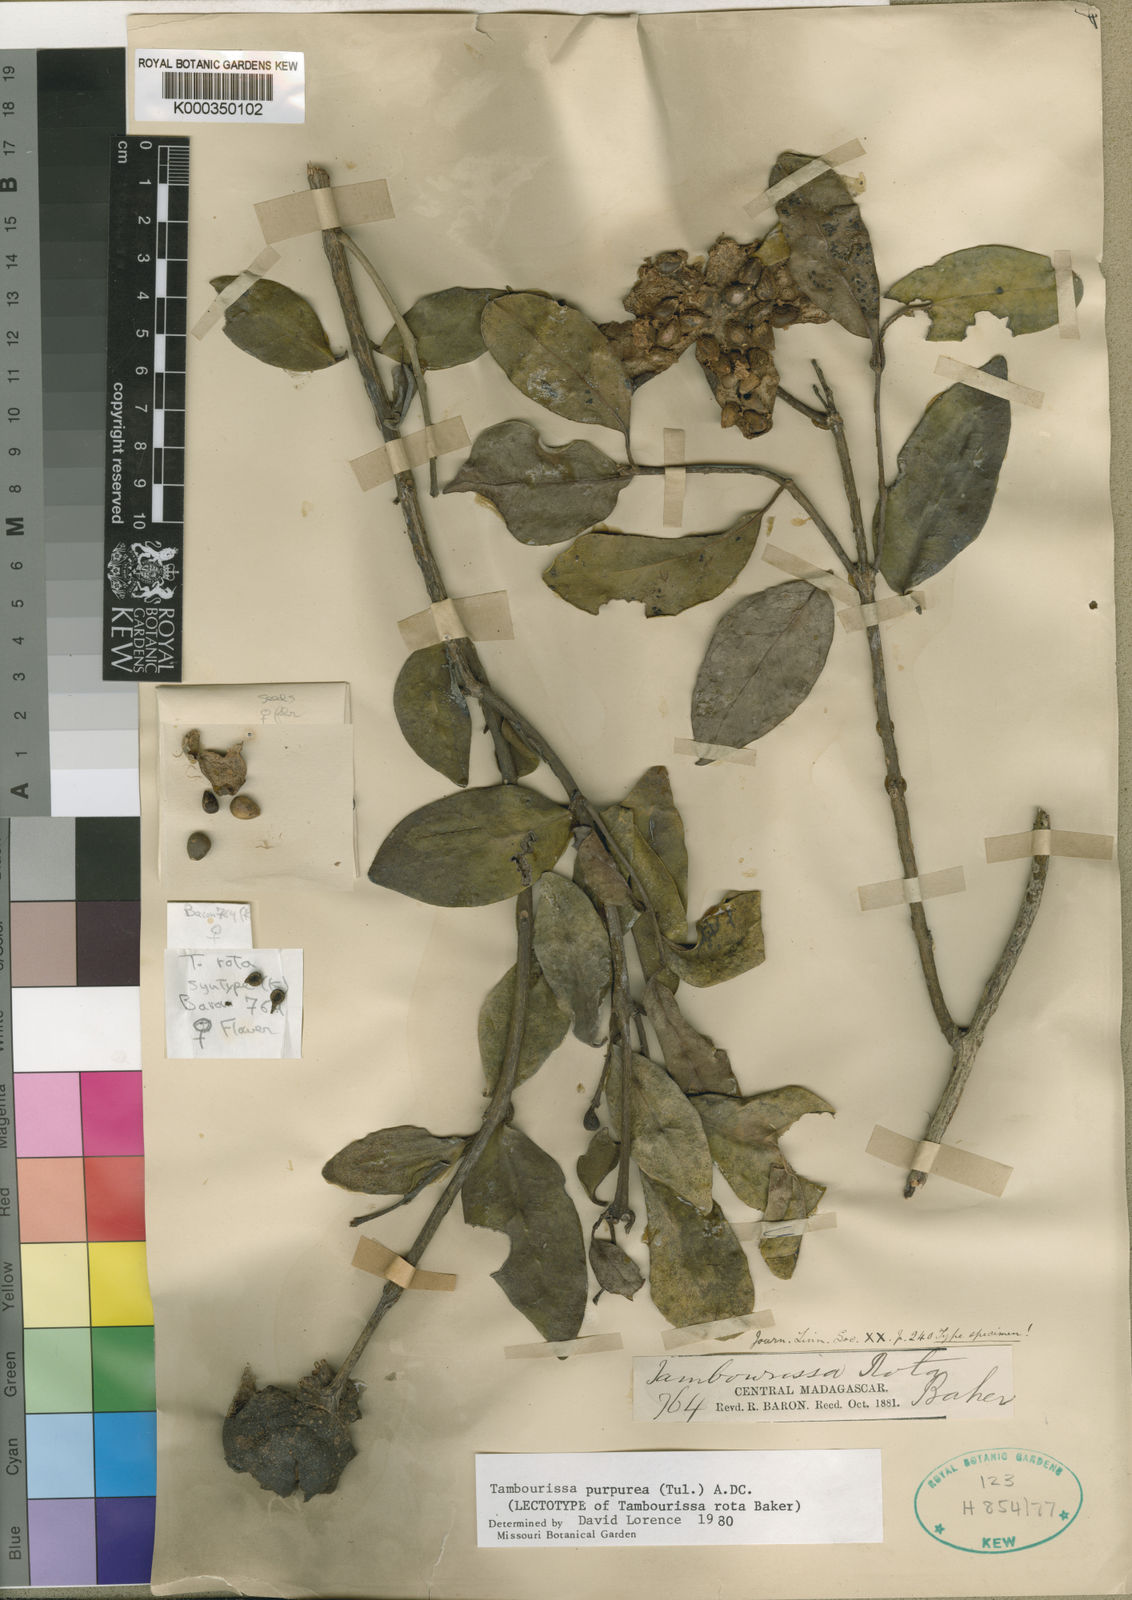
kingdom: Plantae
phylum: Tracheophyta
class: Magnoliopsida
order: Laurales
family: Monimiaceae
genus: Tambourissa
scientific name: Tambourissa purpurea
